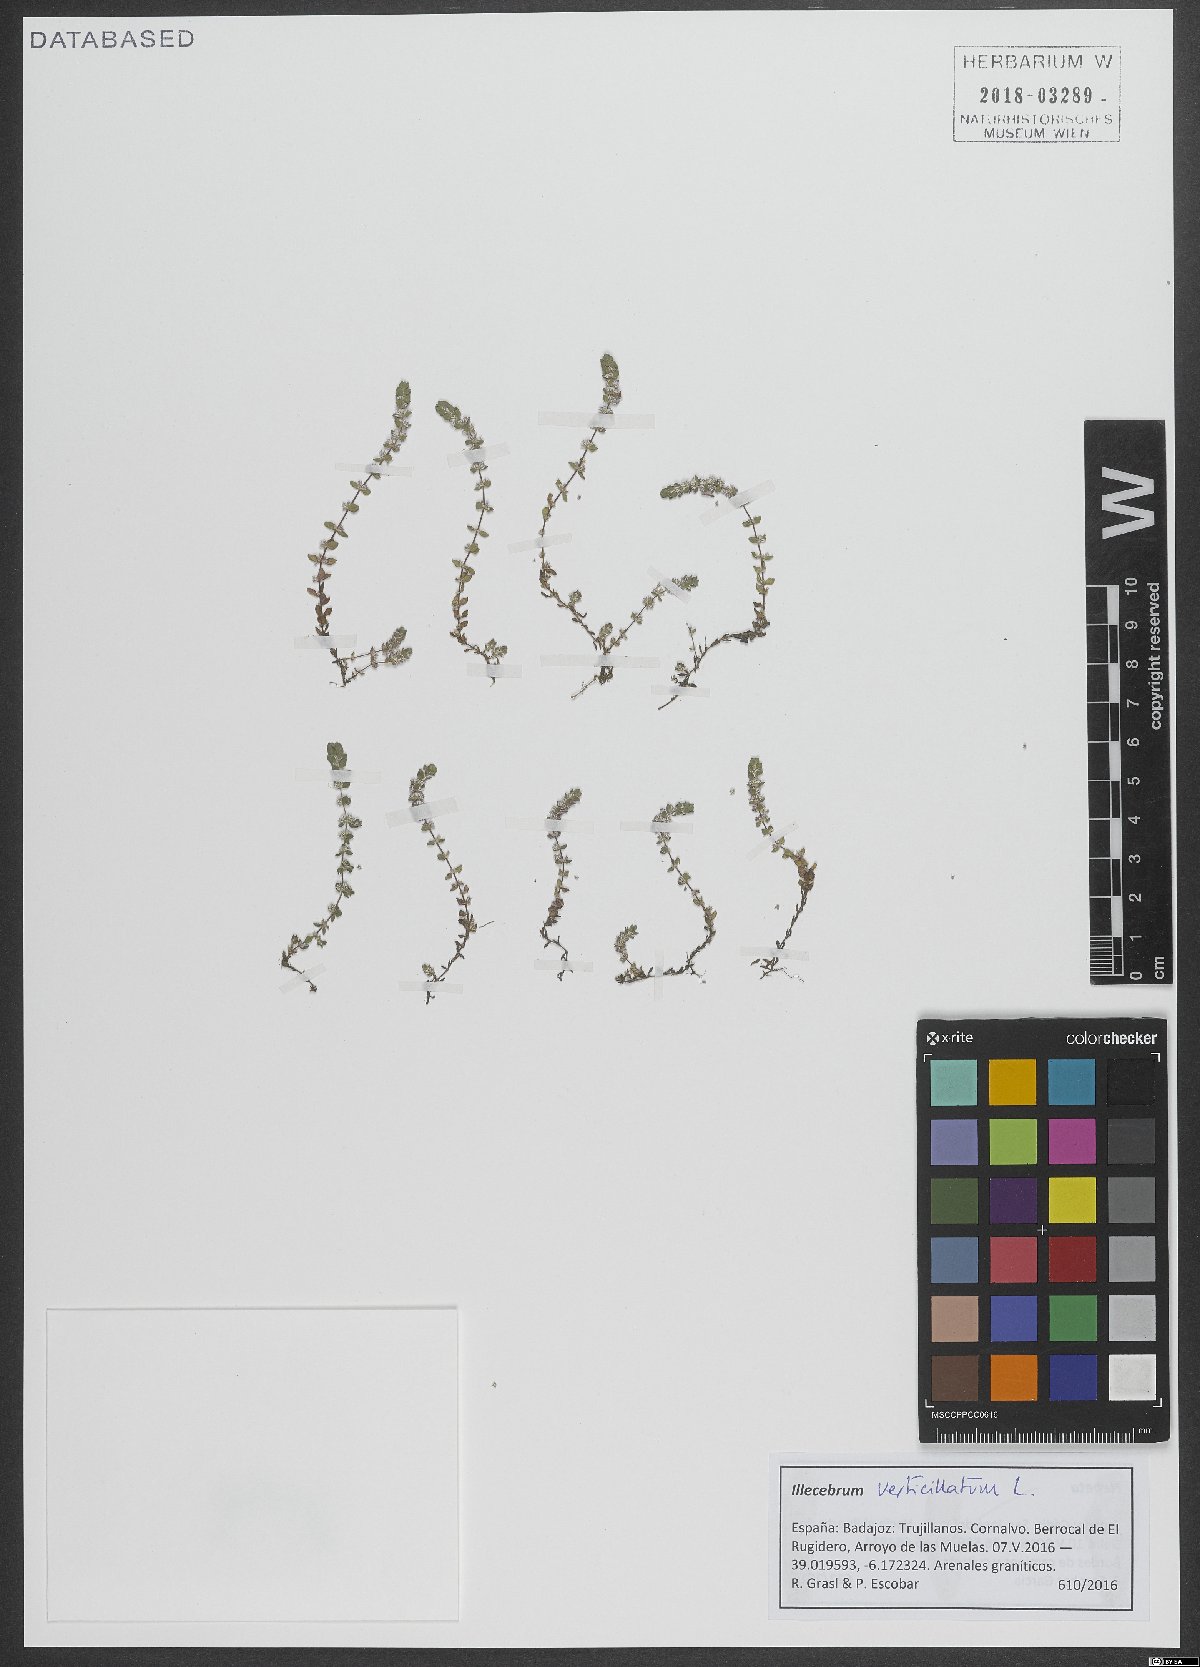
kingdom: Plantae
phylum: Tracheophyta
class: Magnoliopsida
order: Caryophyllales
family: Caryophyllaceae
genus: Illecebrum
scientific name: Illecebrum verticillatum
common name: Coral necklace
